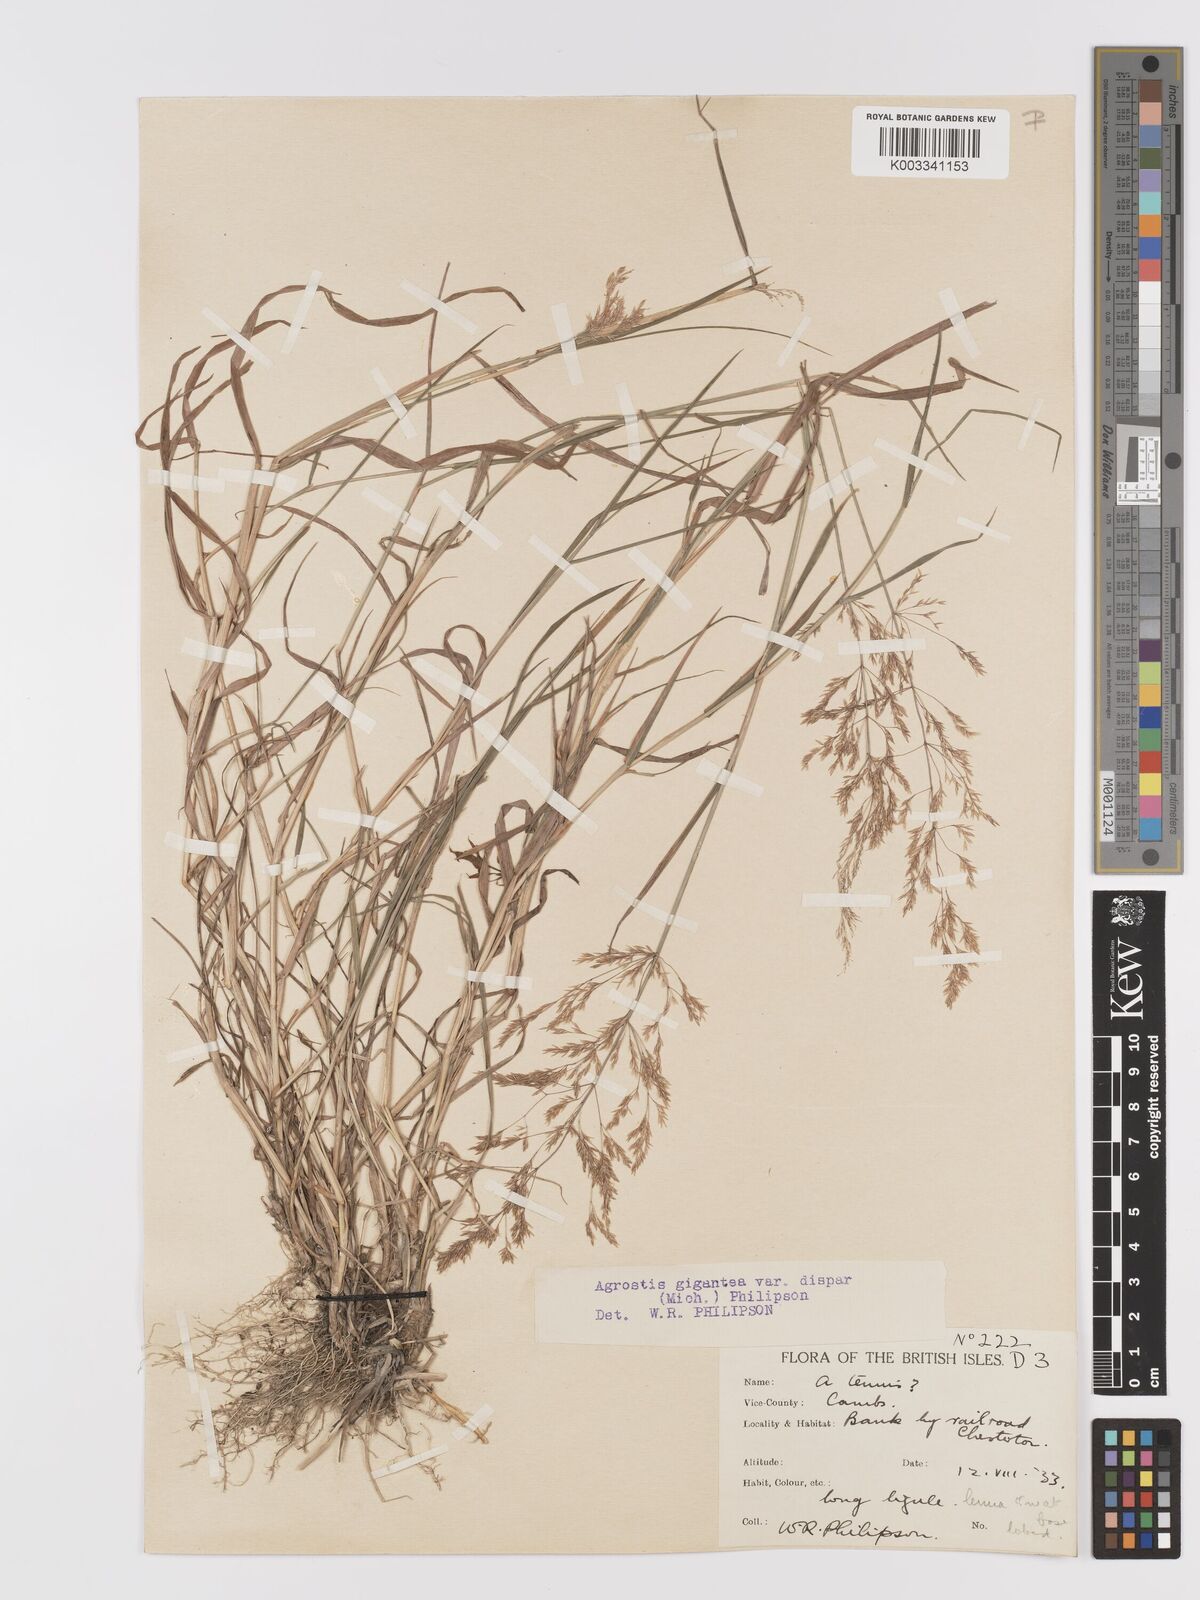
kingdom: Plantae
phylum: Tracheophyta
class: Liliopsida
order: Poales
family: Poaceae
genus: Agrostis
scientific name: Agrostis gigantea
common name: Black bent
